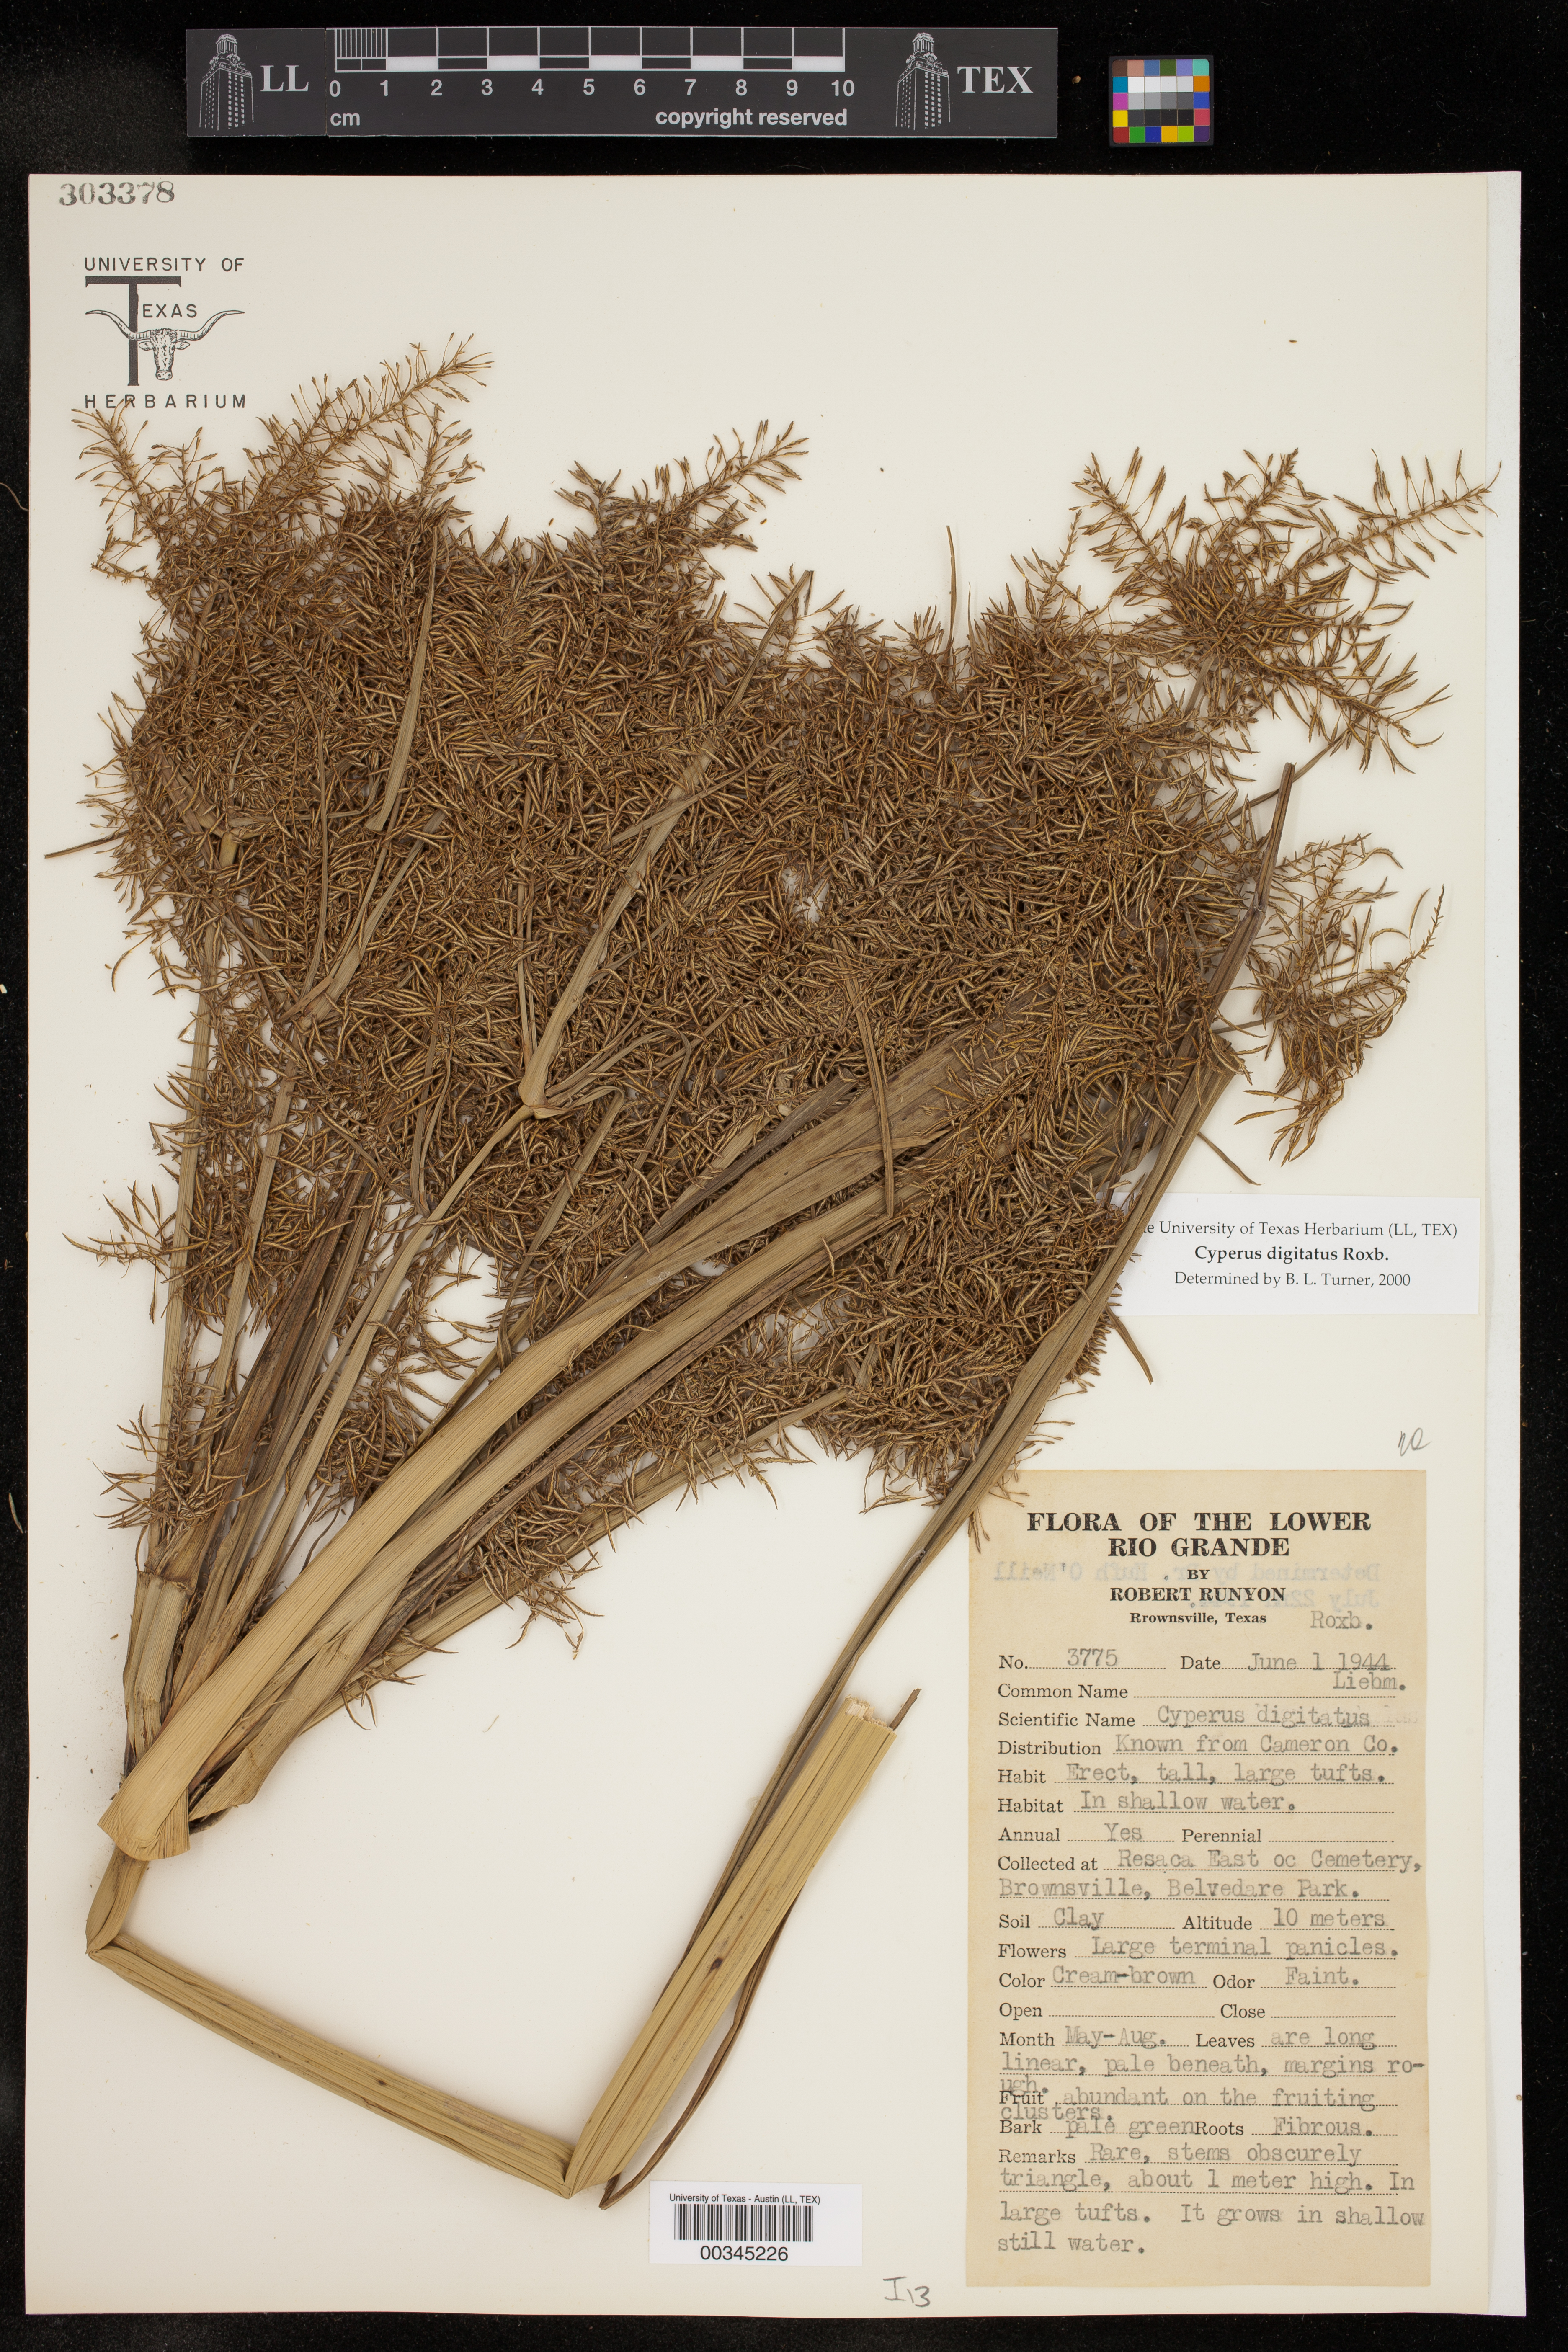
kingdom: Plantae
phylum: Tracheophyta
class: Liliopsida
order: Poales
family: Cyperaceae
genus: Cyperus
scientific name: Cyperus digitatus
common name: Finger flatsedge
